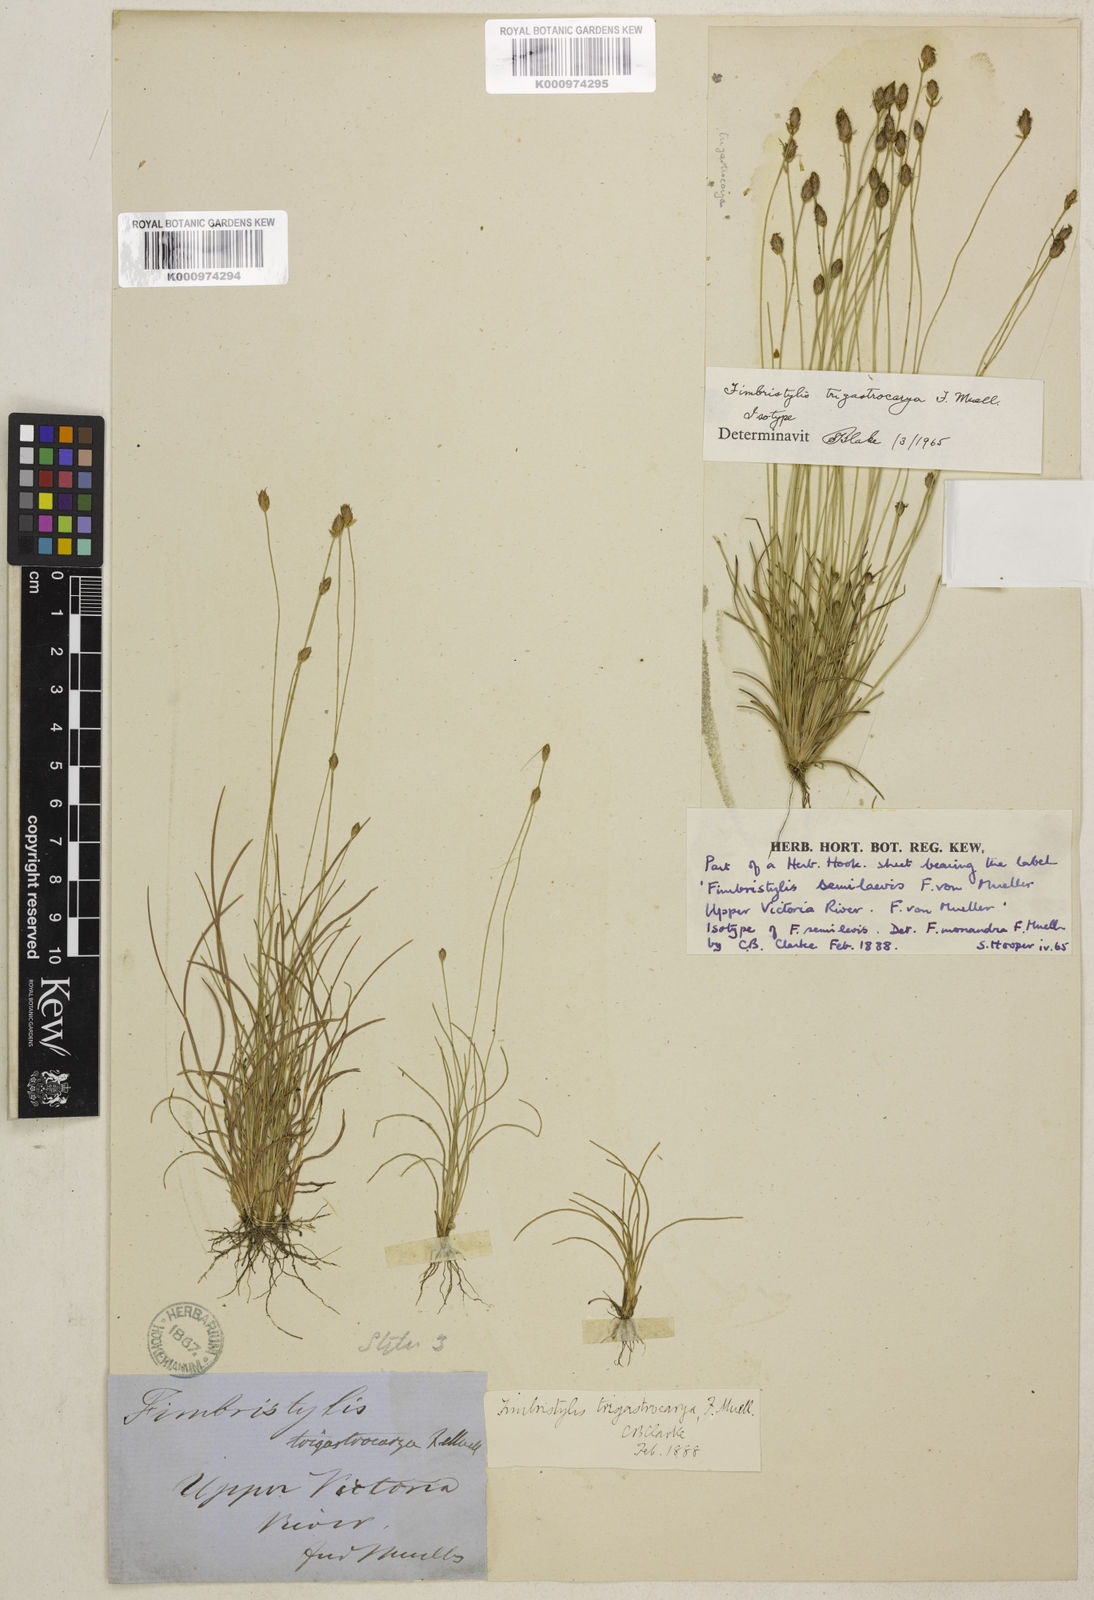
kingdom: Plantae
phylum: Tracheophyta
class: Liliopsida
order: Poales
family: Cyperaceae
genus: Fimbristylis
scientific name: Fimbristylis trigastrocarya
